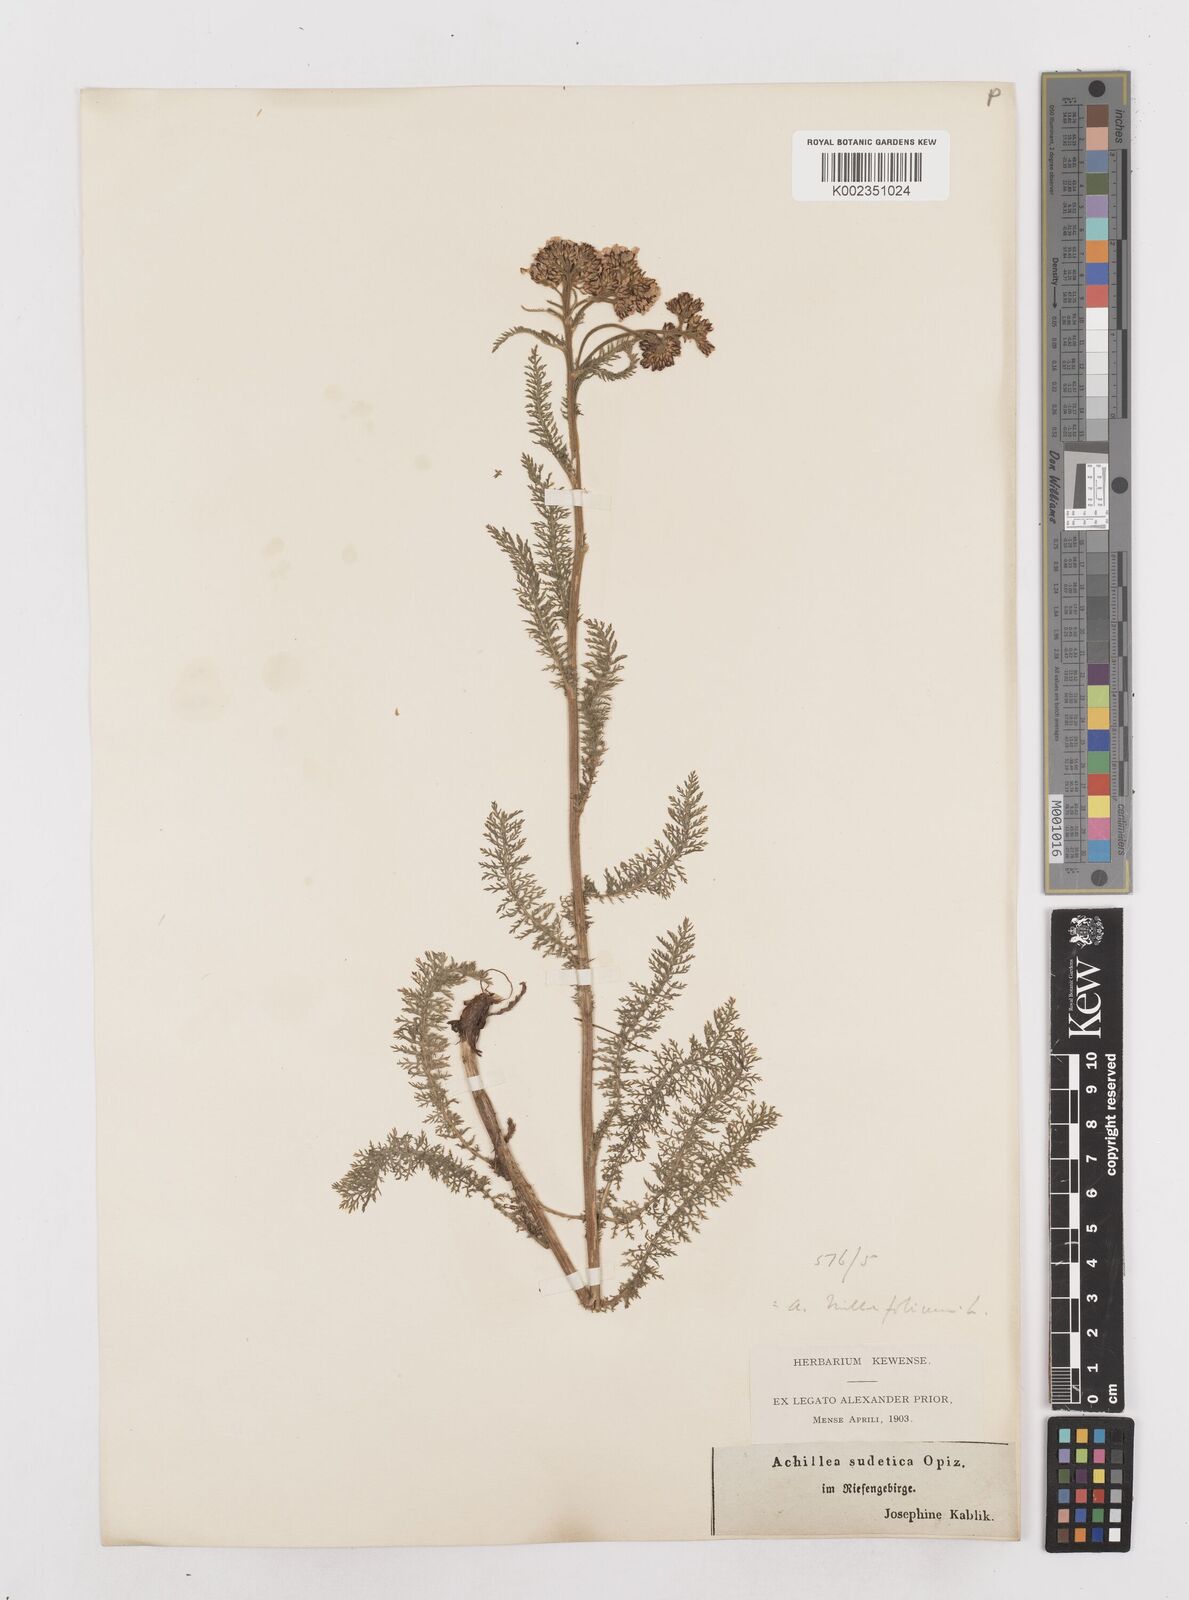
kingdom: Plantae
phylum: Tracheophyta
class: Magnoliopsida
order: Asterales
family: Asteraceae
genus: Achillea
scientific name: Achillea millefolium
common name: Yarrow
